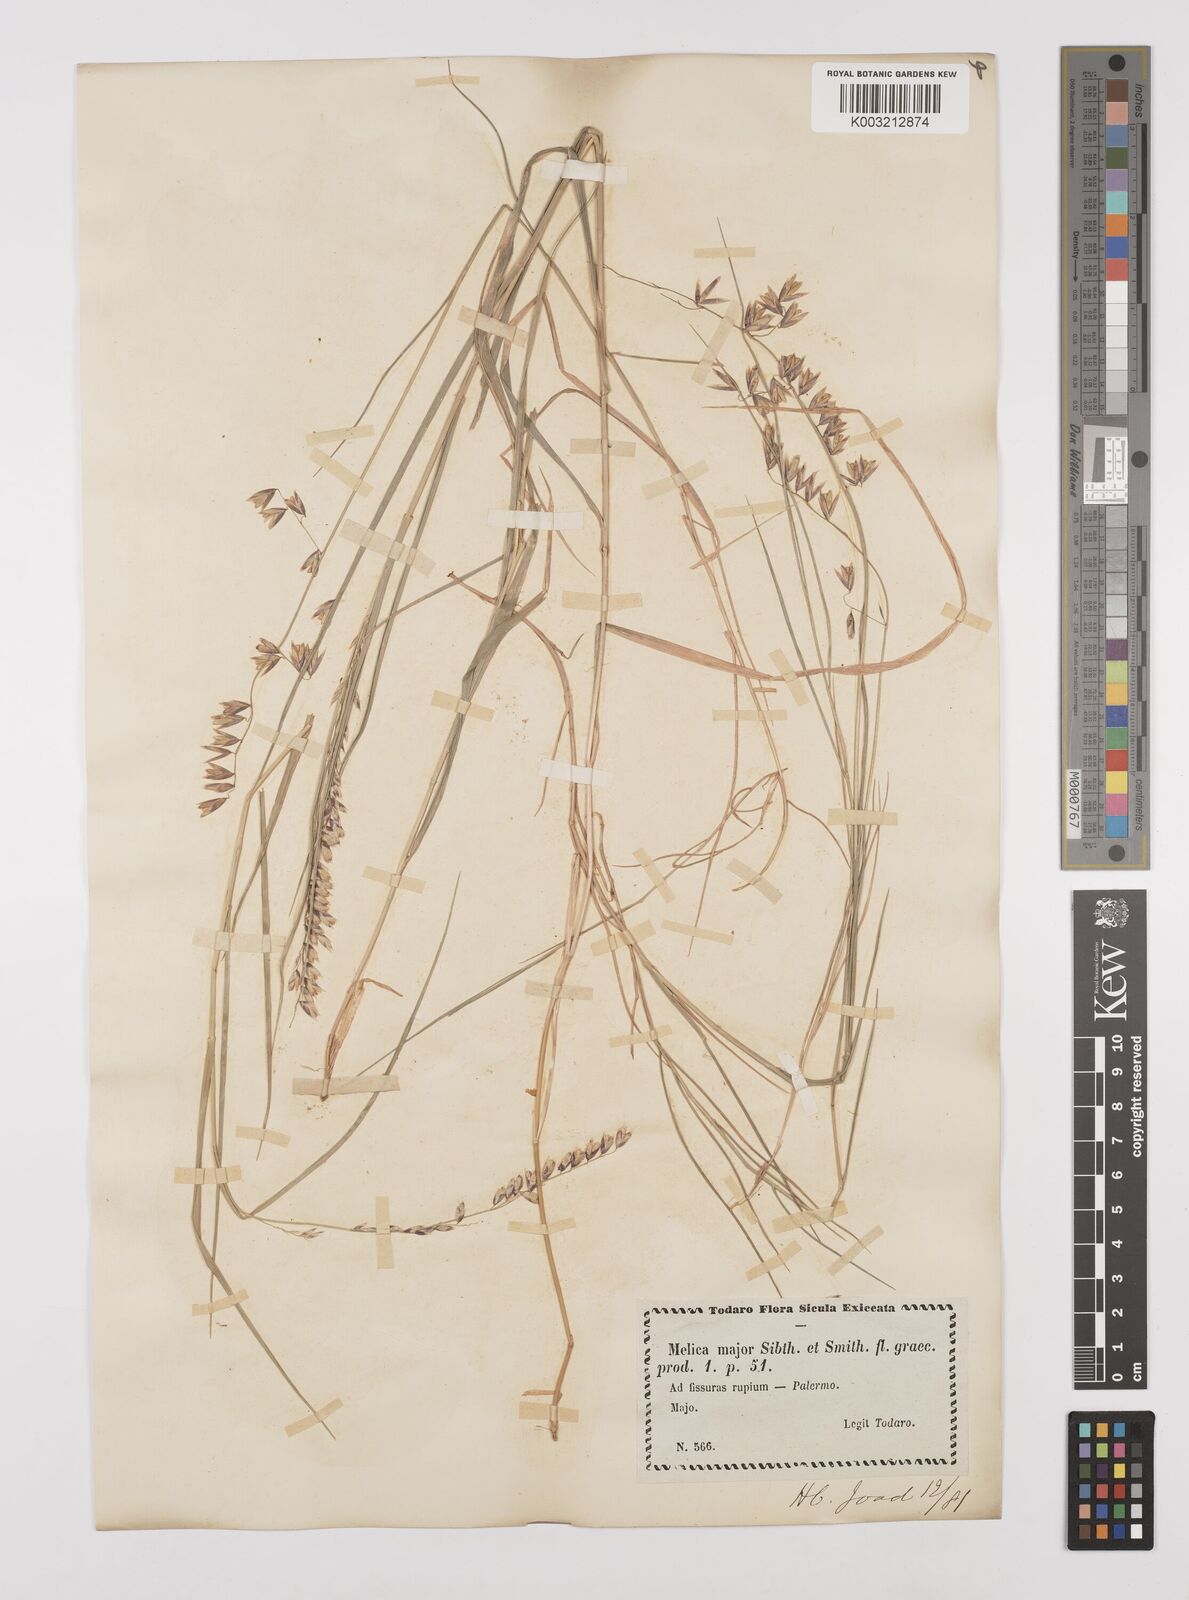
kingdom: Plantae
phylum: Tracheophyta
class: Liliopsida
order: Poales
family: Poaceae
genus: Melica
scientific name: Melica minuta
